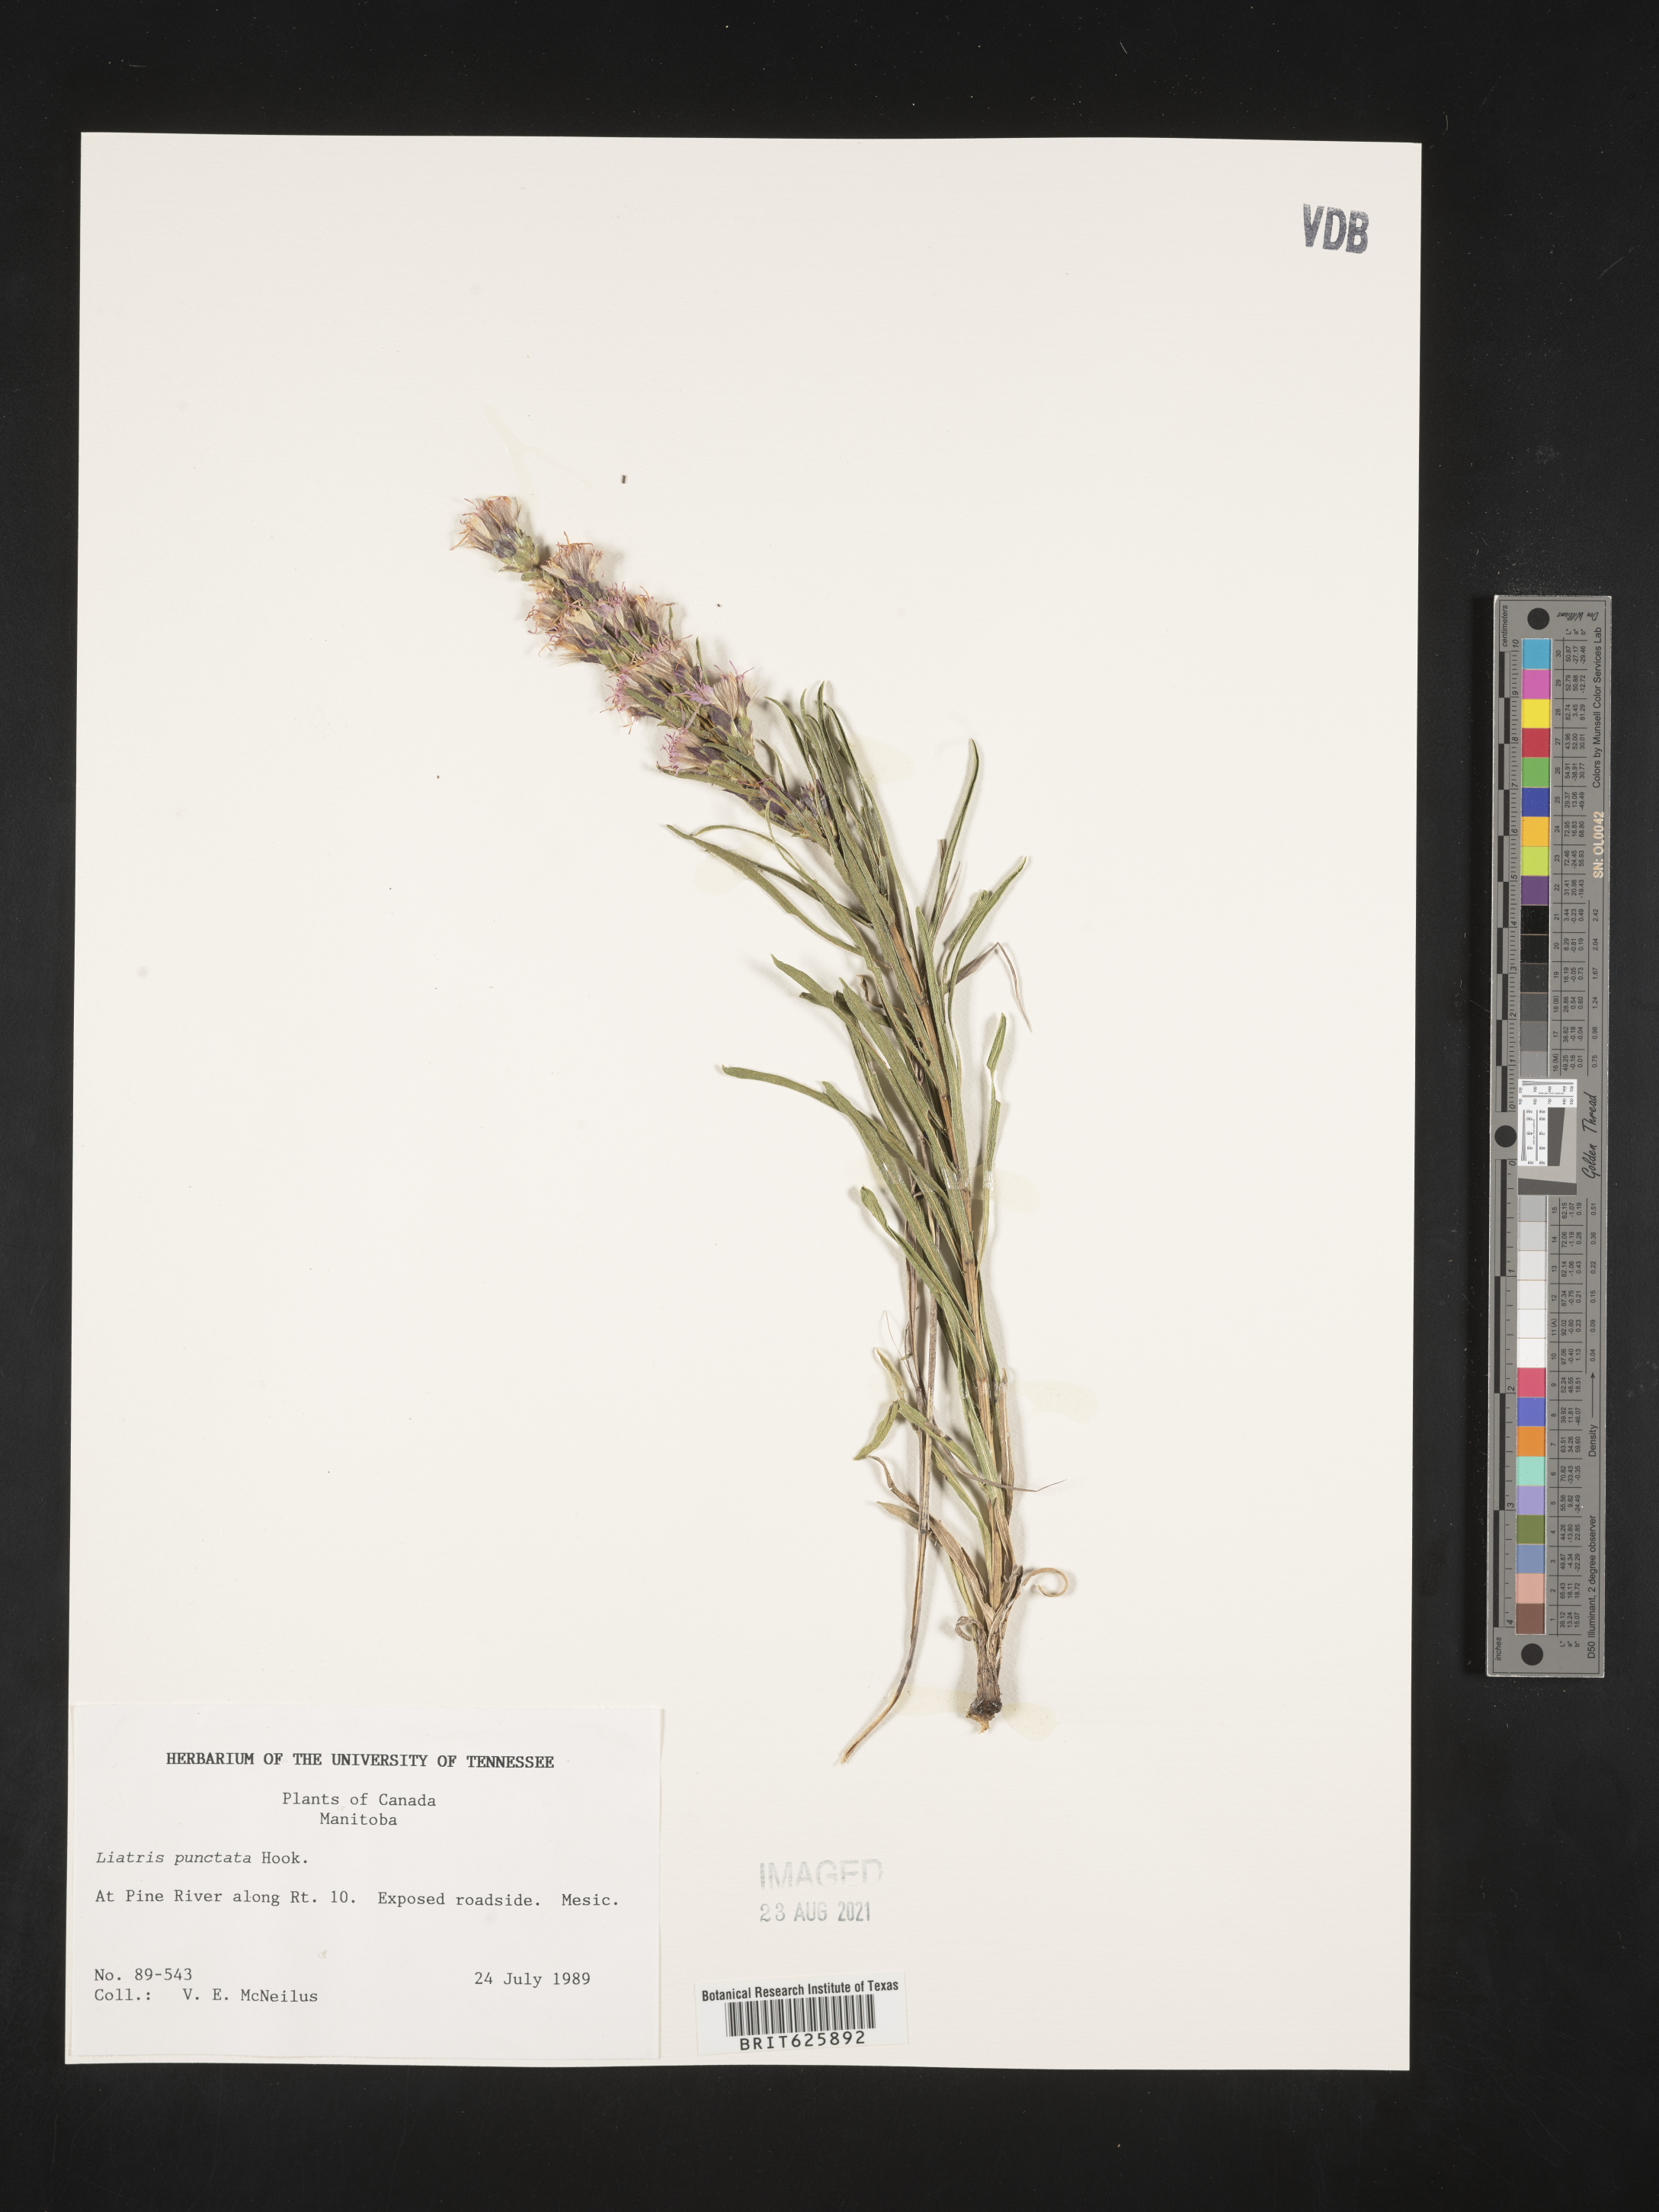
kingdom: Plantae
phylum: Tracheophyta
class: Magnoliopsida
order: Asterales
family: Asteraceae
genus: Liatris
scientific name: Liatris punctata
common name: Dotted gayfeather
